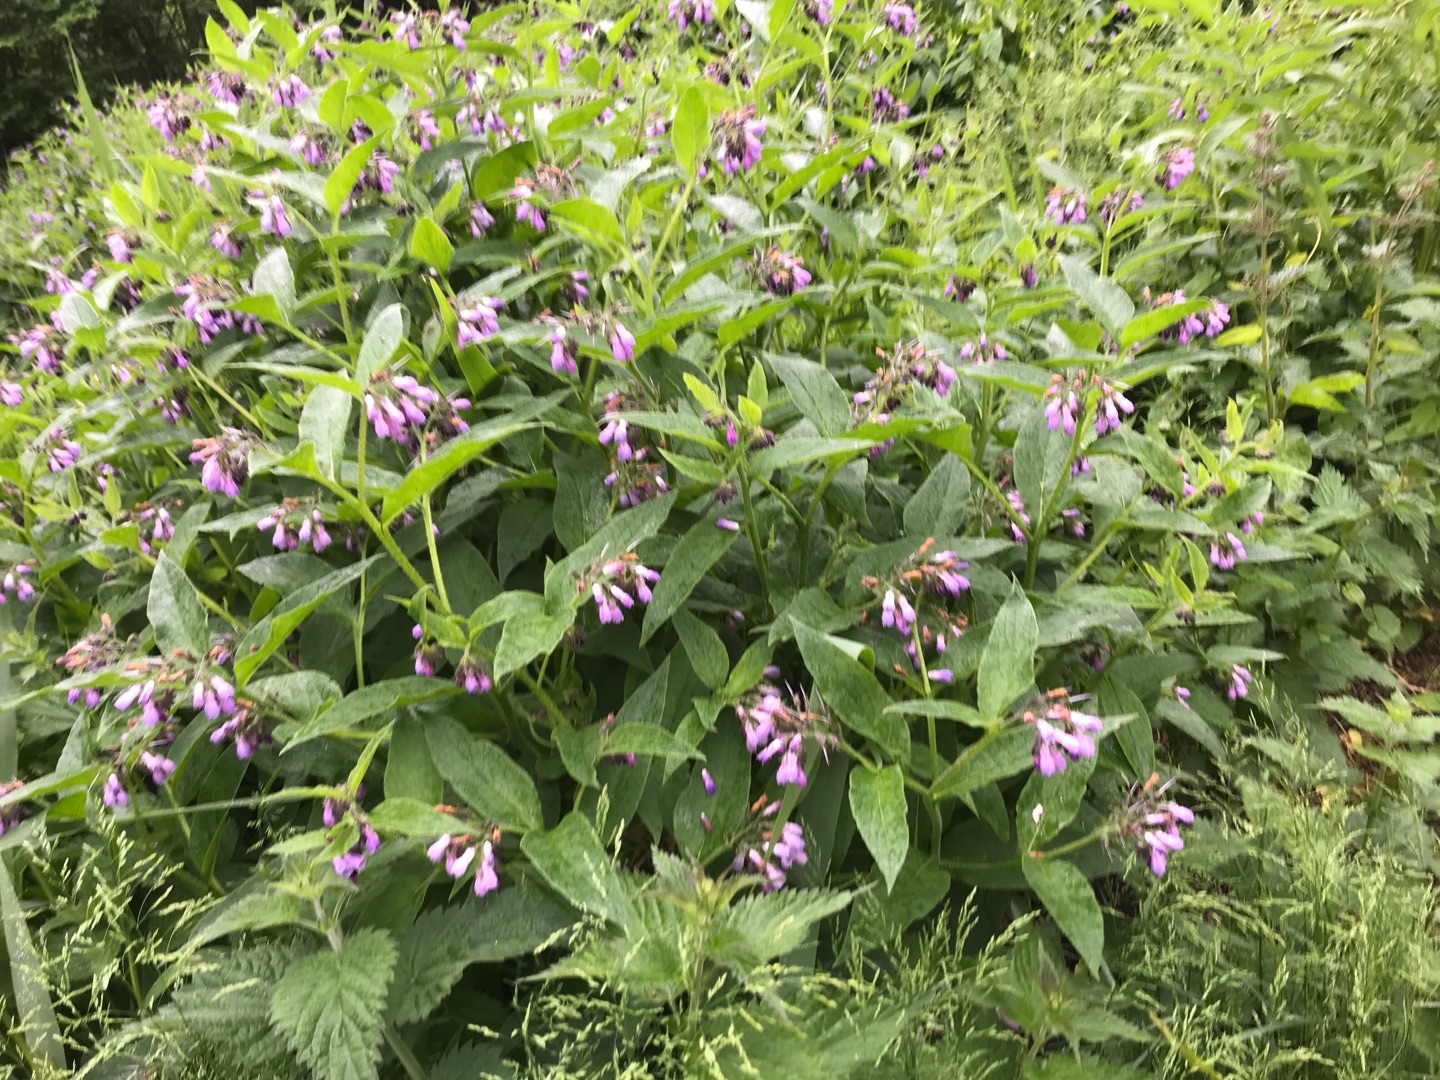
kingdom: Plantae
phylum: Tracheophyta
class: Magnoliopsida
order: Boraginales
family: Boraginaceae
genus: Symphytum
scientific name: Symphytum uplandicum
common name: Foder-kulsukker
